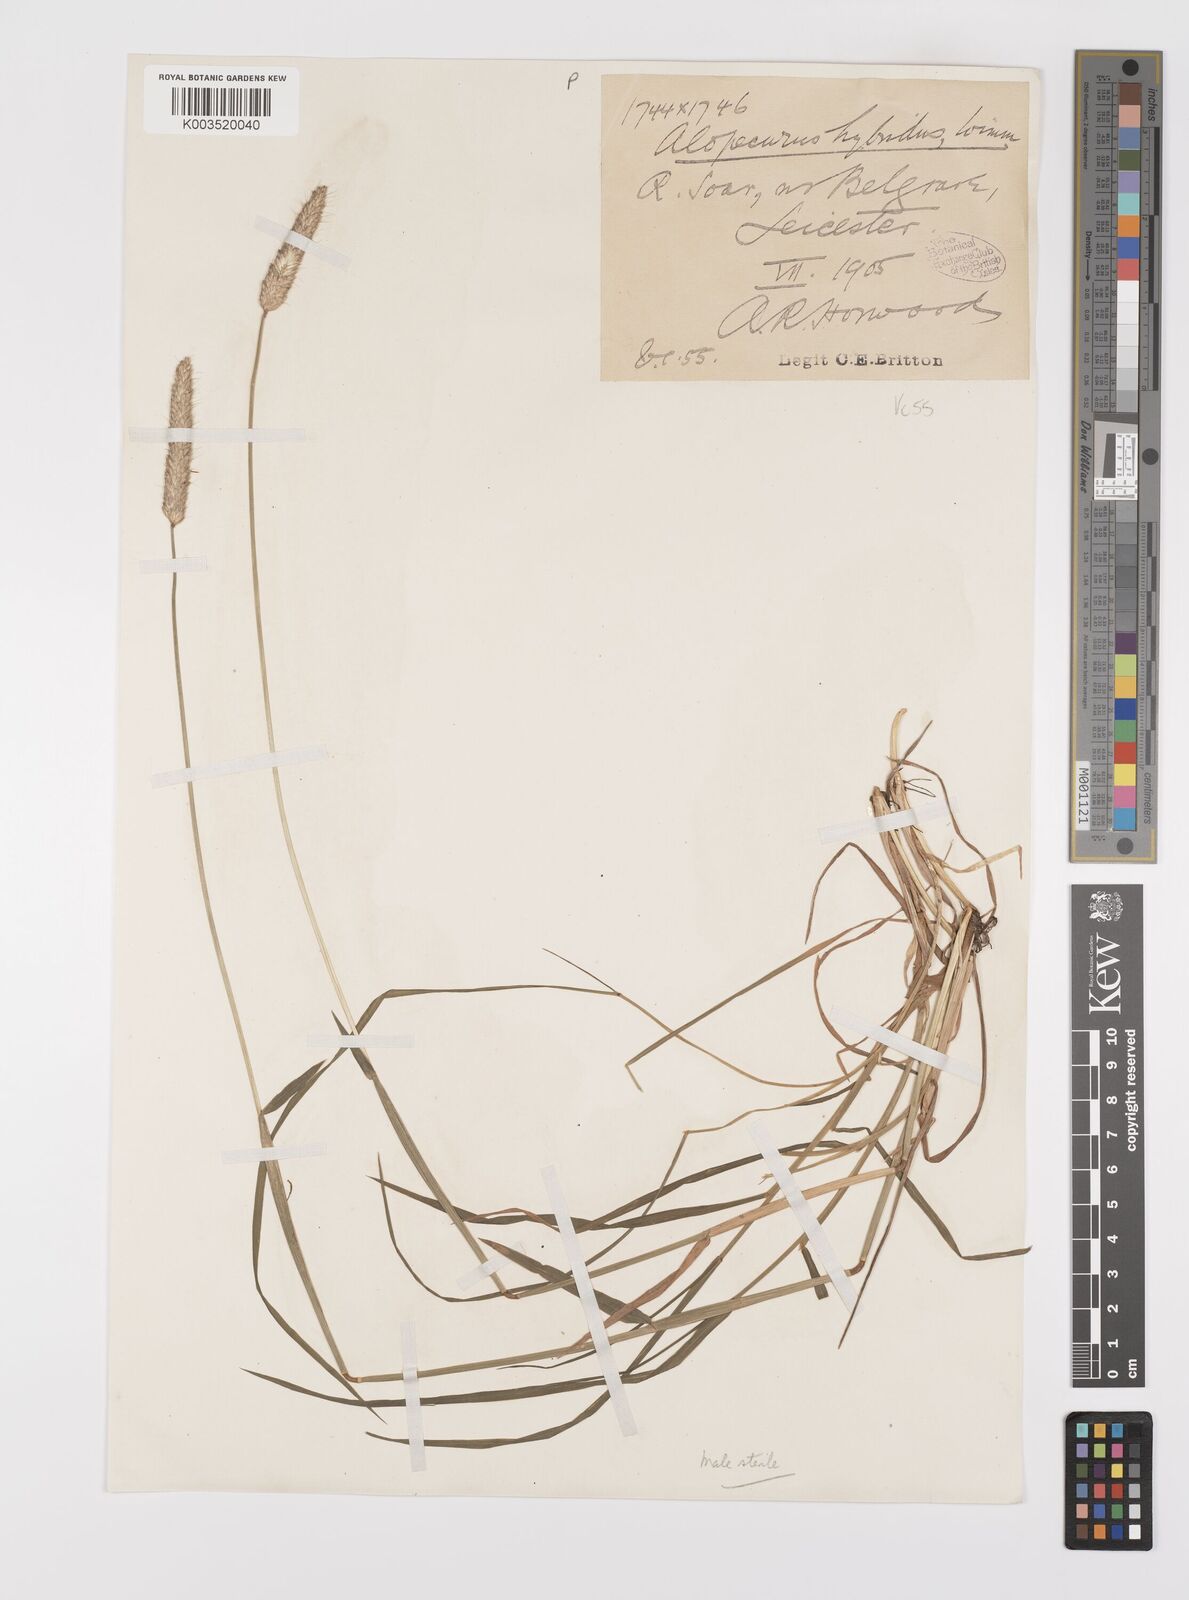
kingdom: Plantae
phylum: Tracheophyta
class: Liliopsida
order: Poales
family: Poaceae
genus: Alopecurus
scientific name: Alopecurus brachystylus
